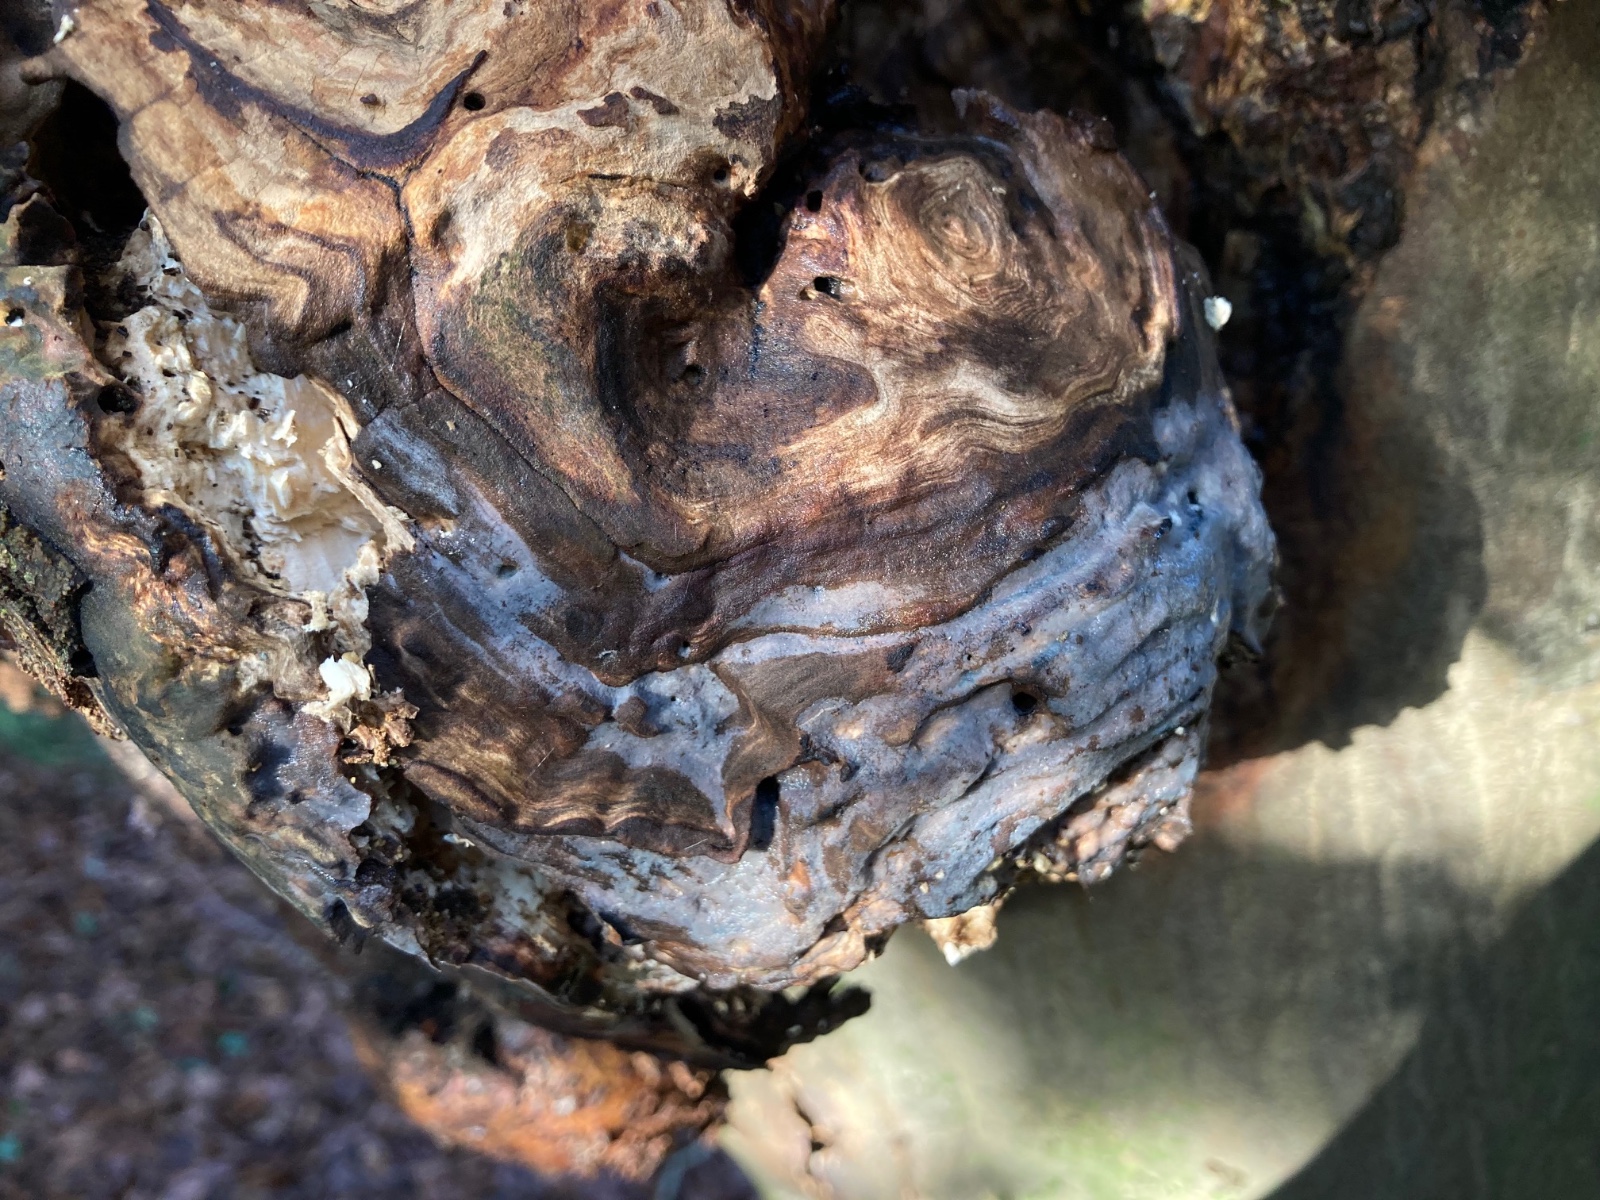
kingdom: Fungi
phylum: Basidiomycota
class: Tremellomycetes
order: Tremellales
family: Exidiaceae
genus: Exidiopsis
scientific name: Exidiopsis effusa
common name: smuk bævrehinde
